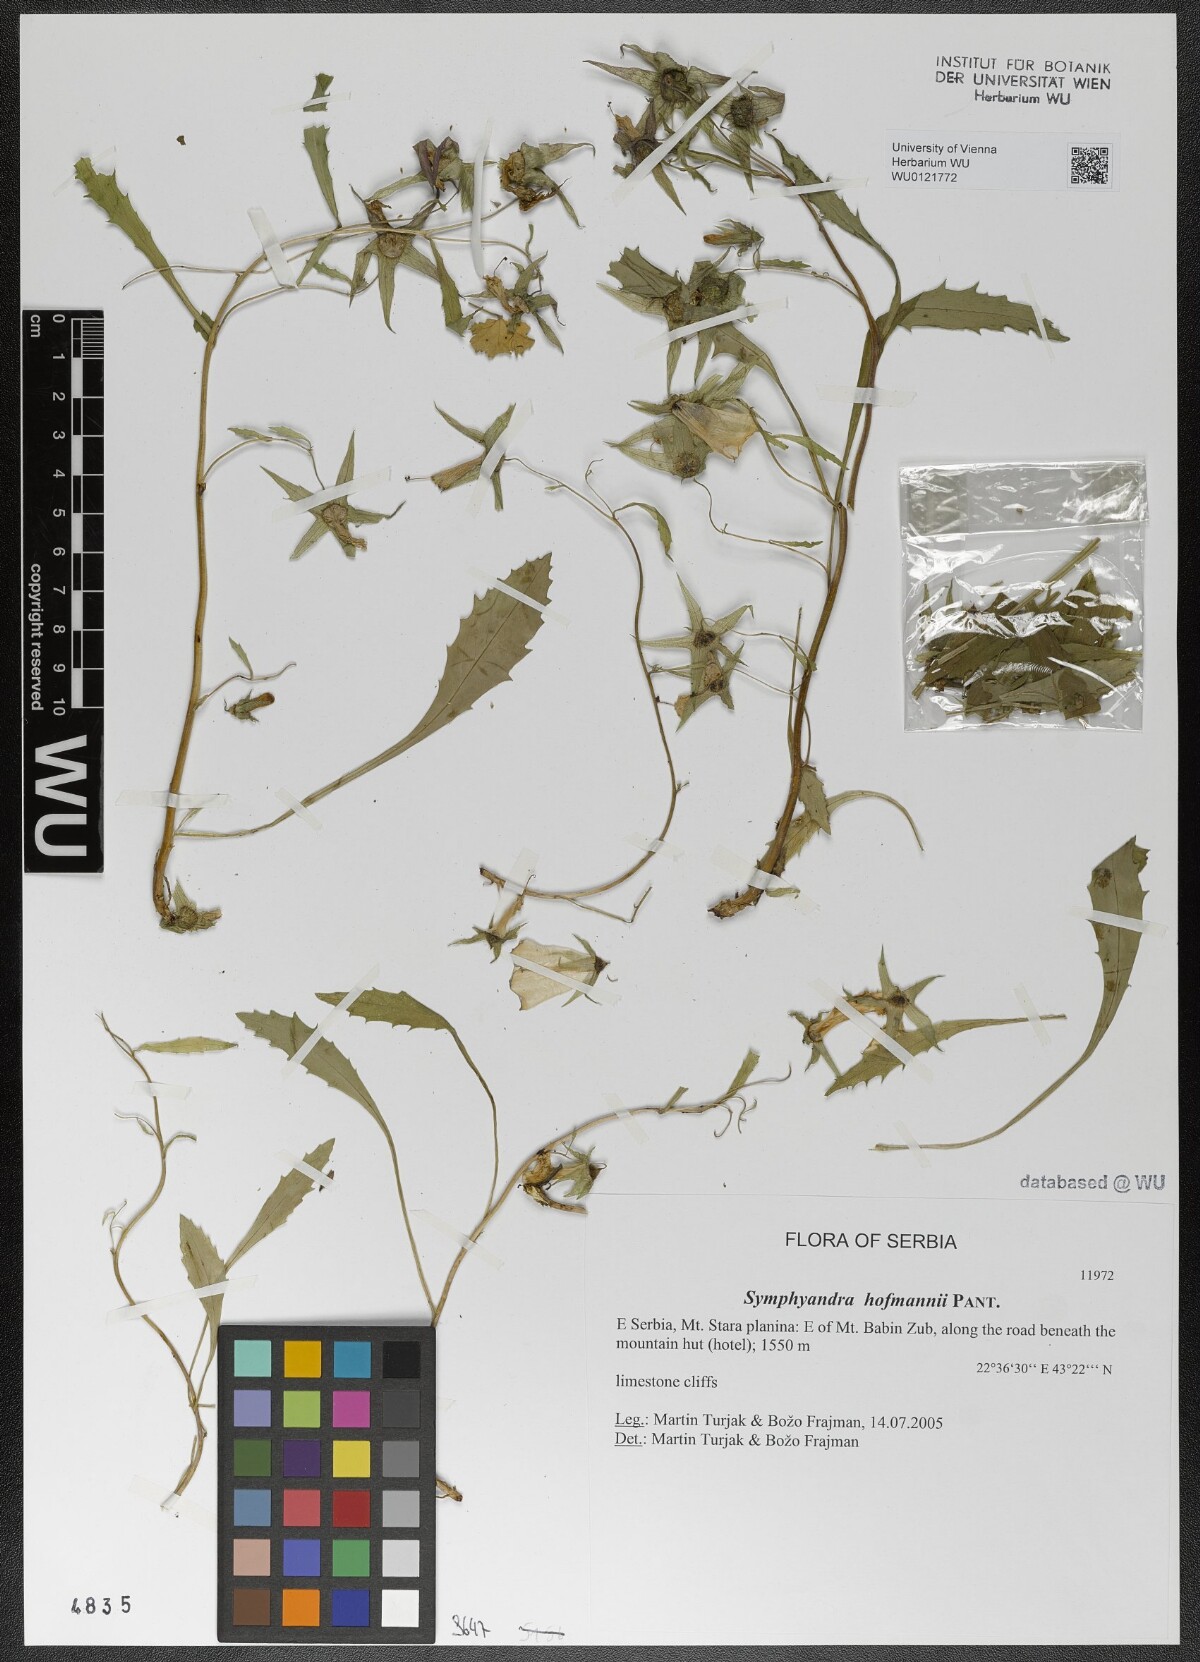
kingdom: Plantae
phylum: Tracheophyta
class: Magnoliopsida
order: Asterales
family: Campanulaceae
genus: Campanula
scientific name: Campanula hofmannii
